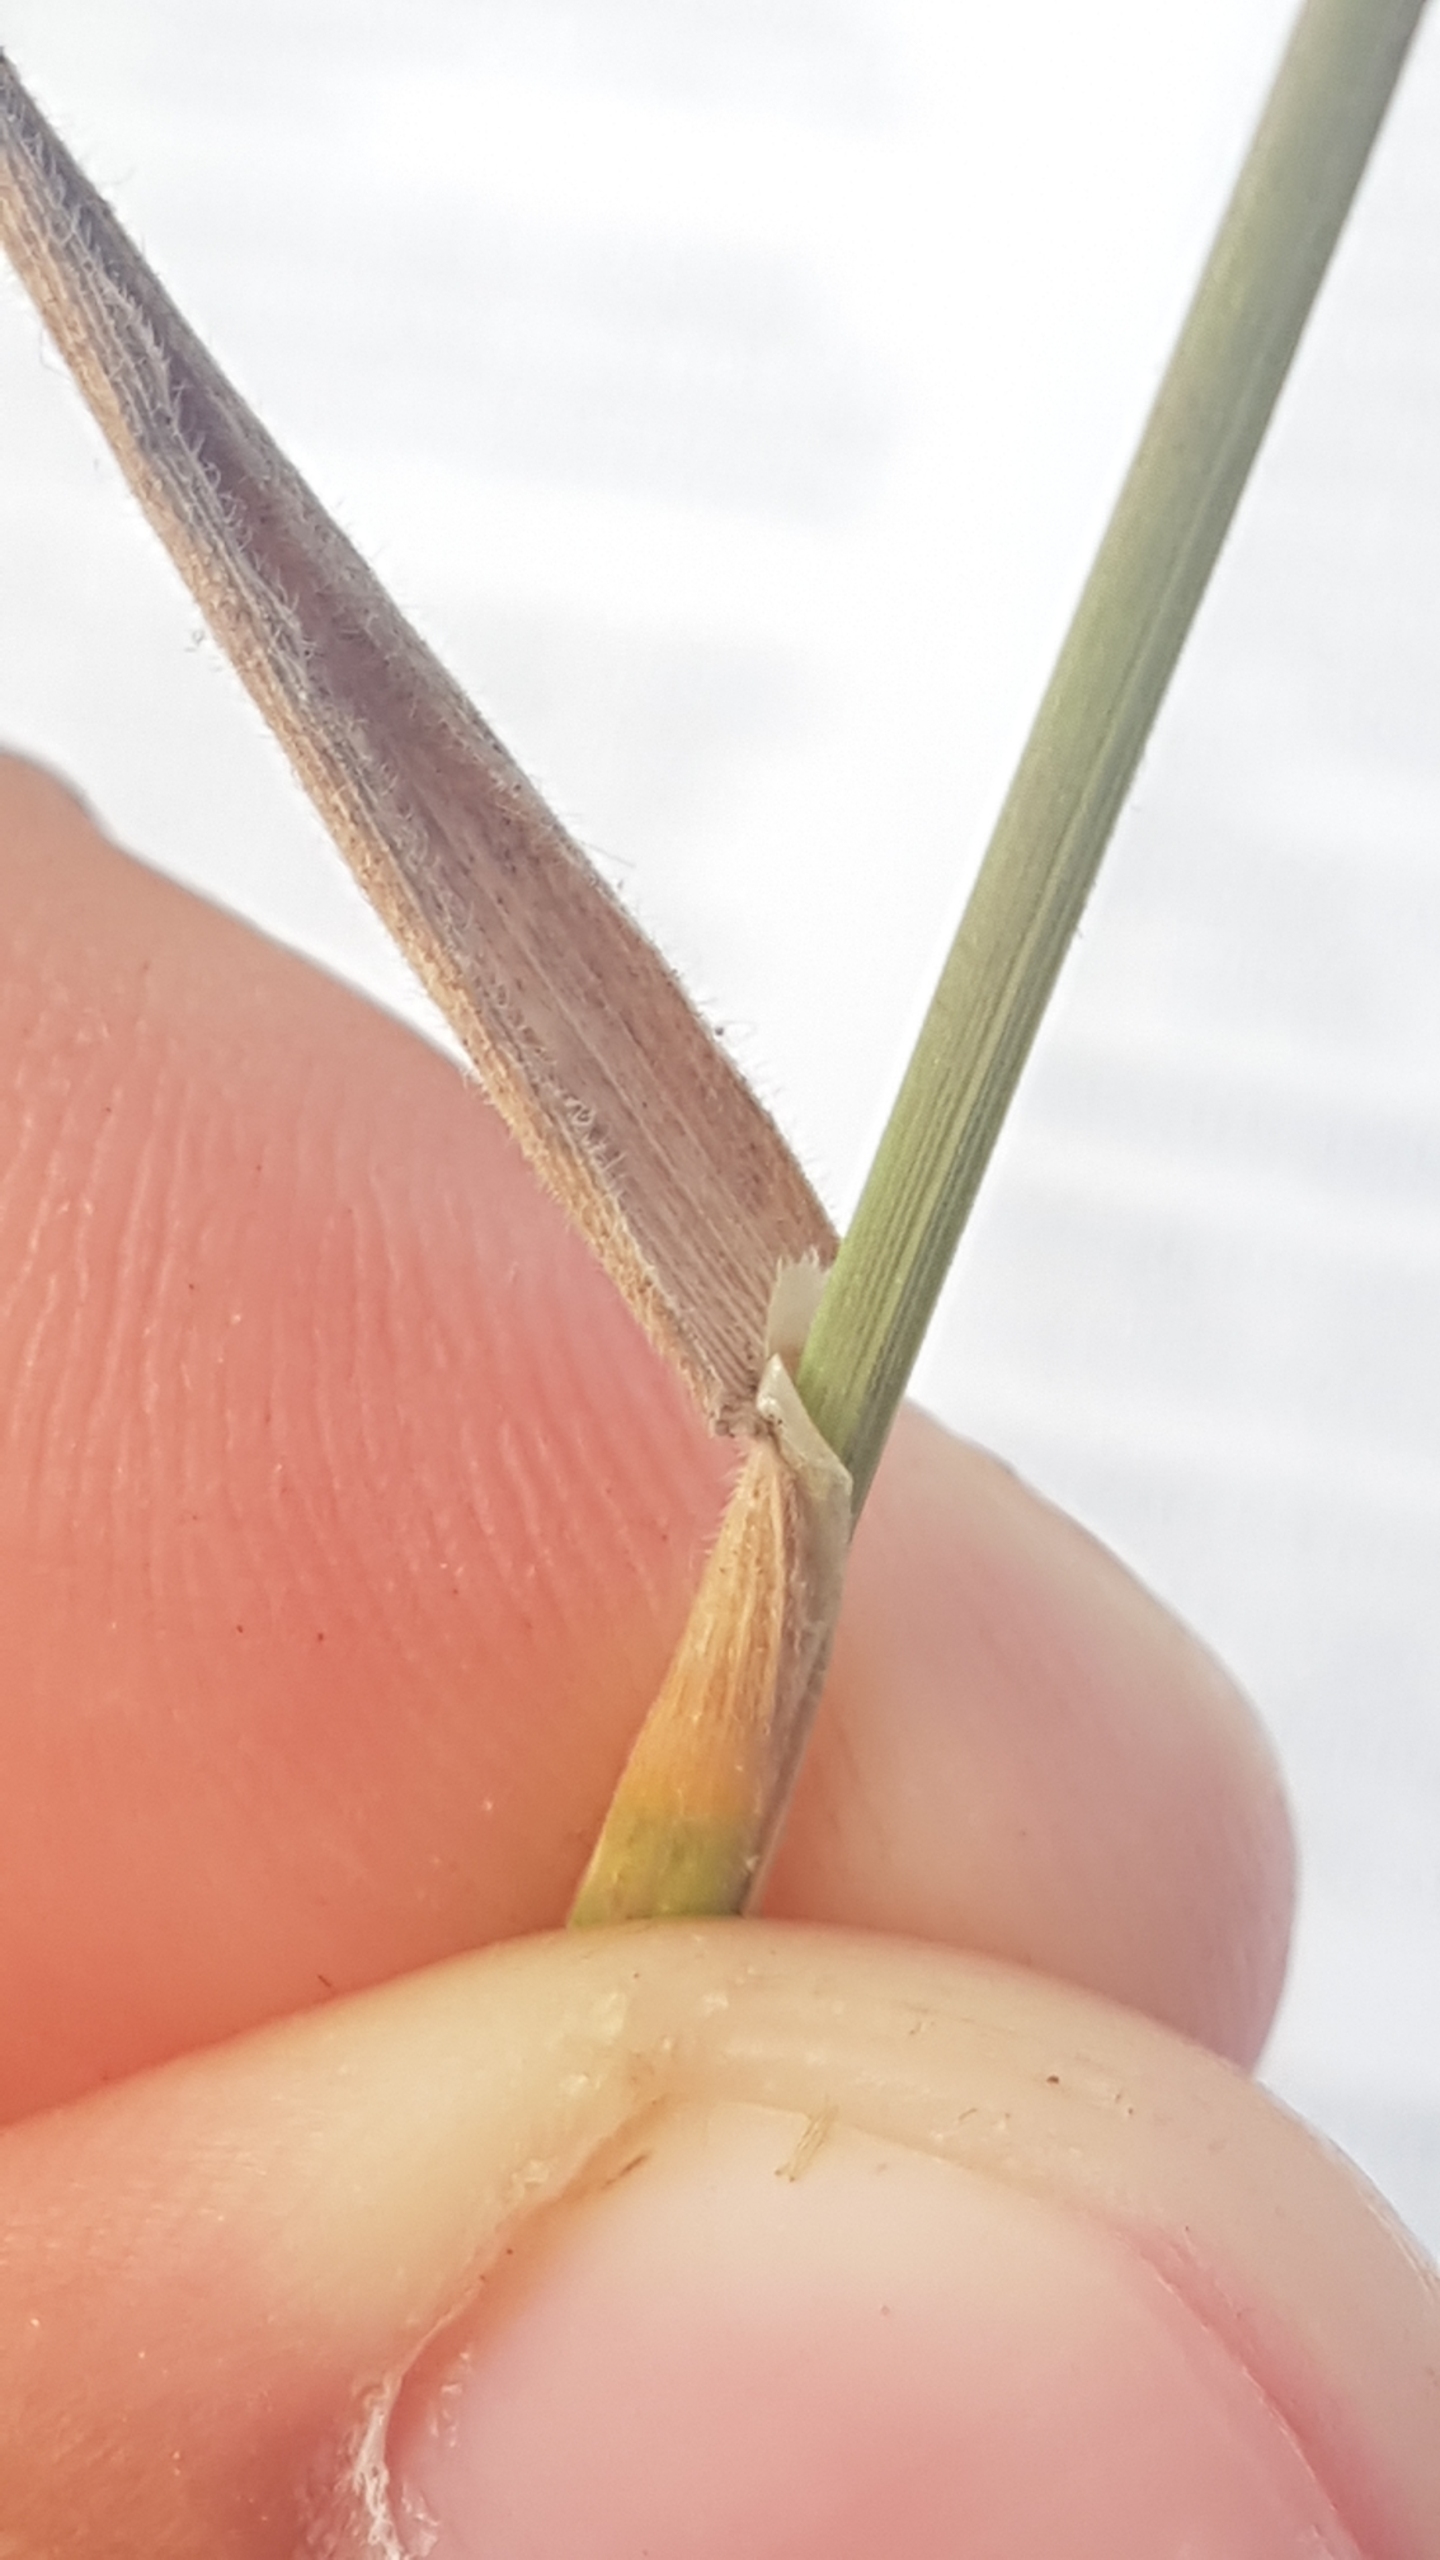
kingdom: Plantae
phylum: Tracheophyta
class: Liliopsida
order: Poales
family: Poaceae
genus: Holcus
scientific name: Holcus lanatus
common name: Fløjlsgræs
